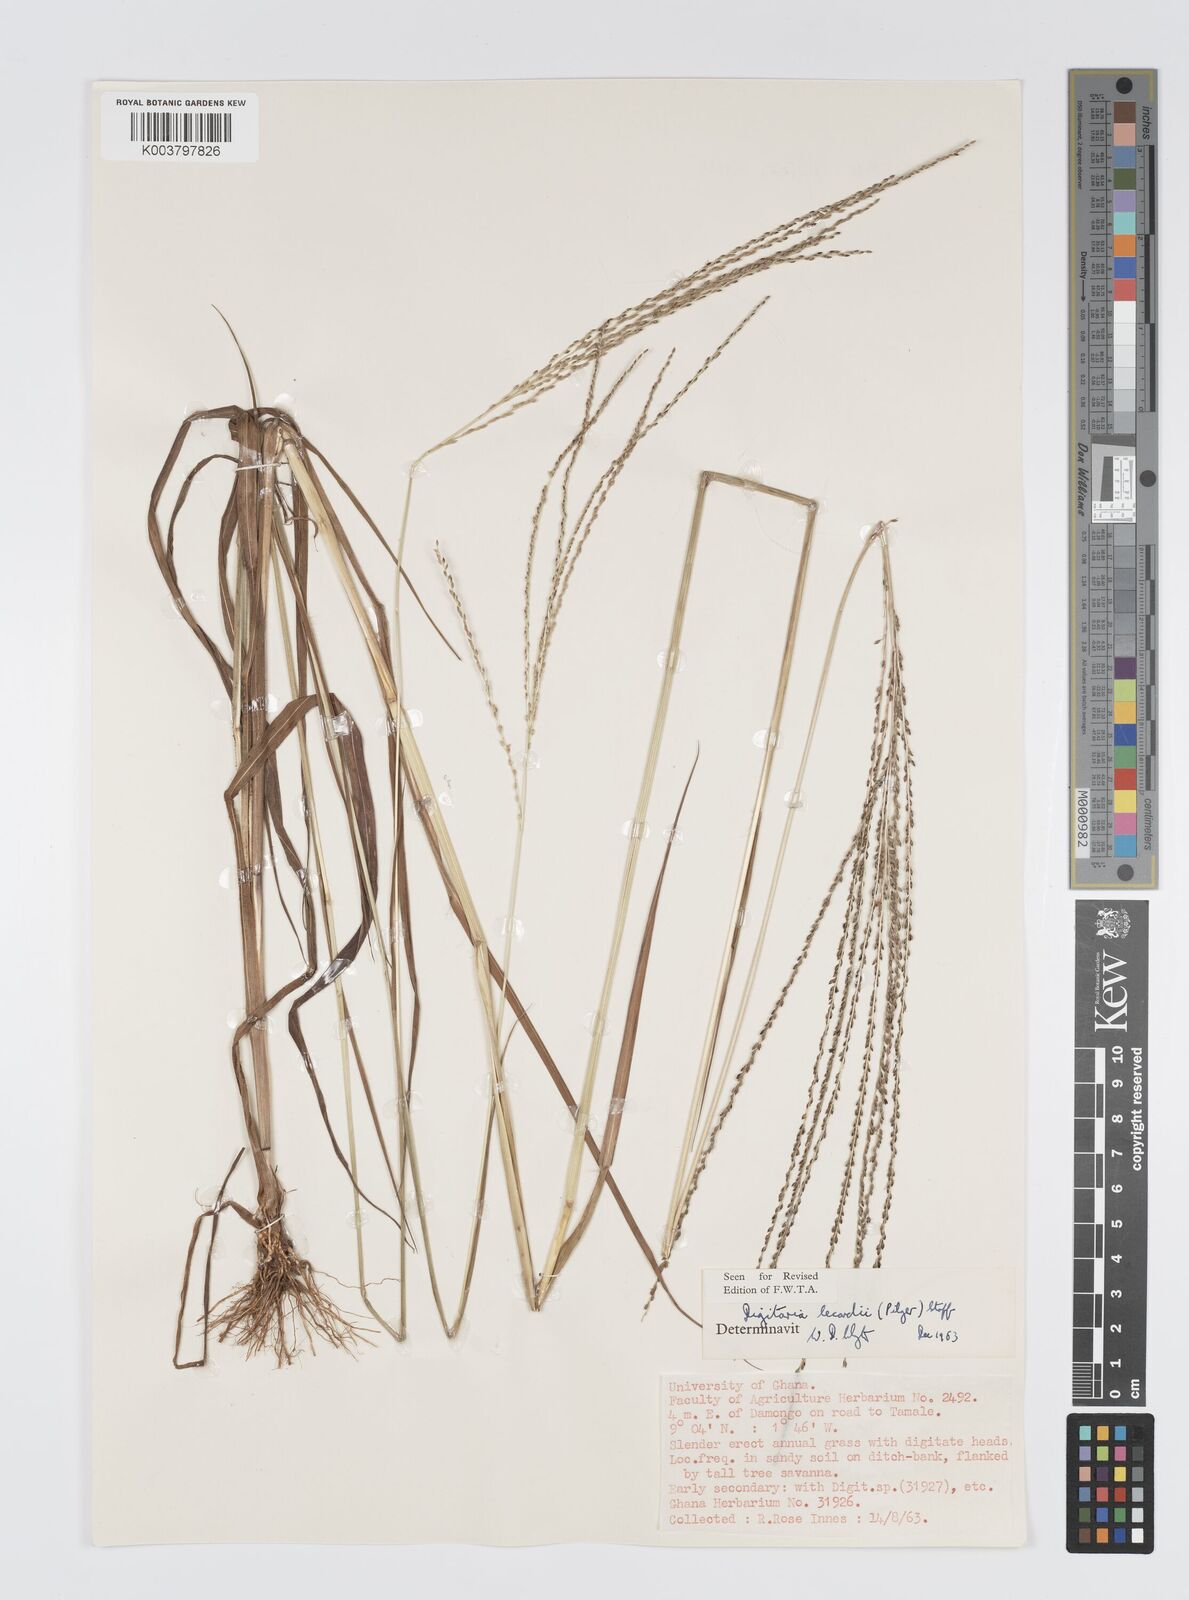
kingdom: Plantae
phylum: Tracheophyta
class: Liliopsida
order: Poales
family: Poaceae
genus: Digitaria
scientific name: Digitaria
